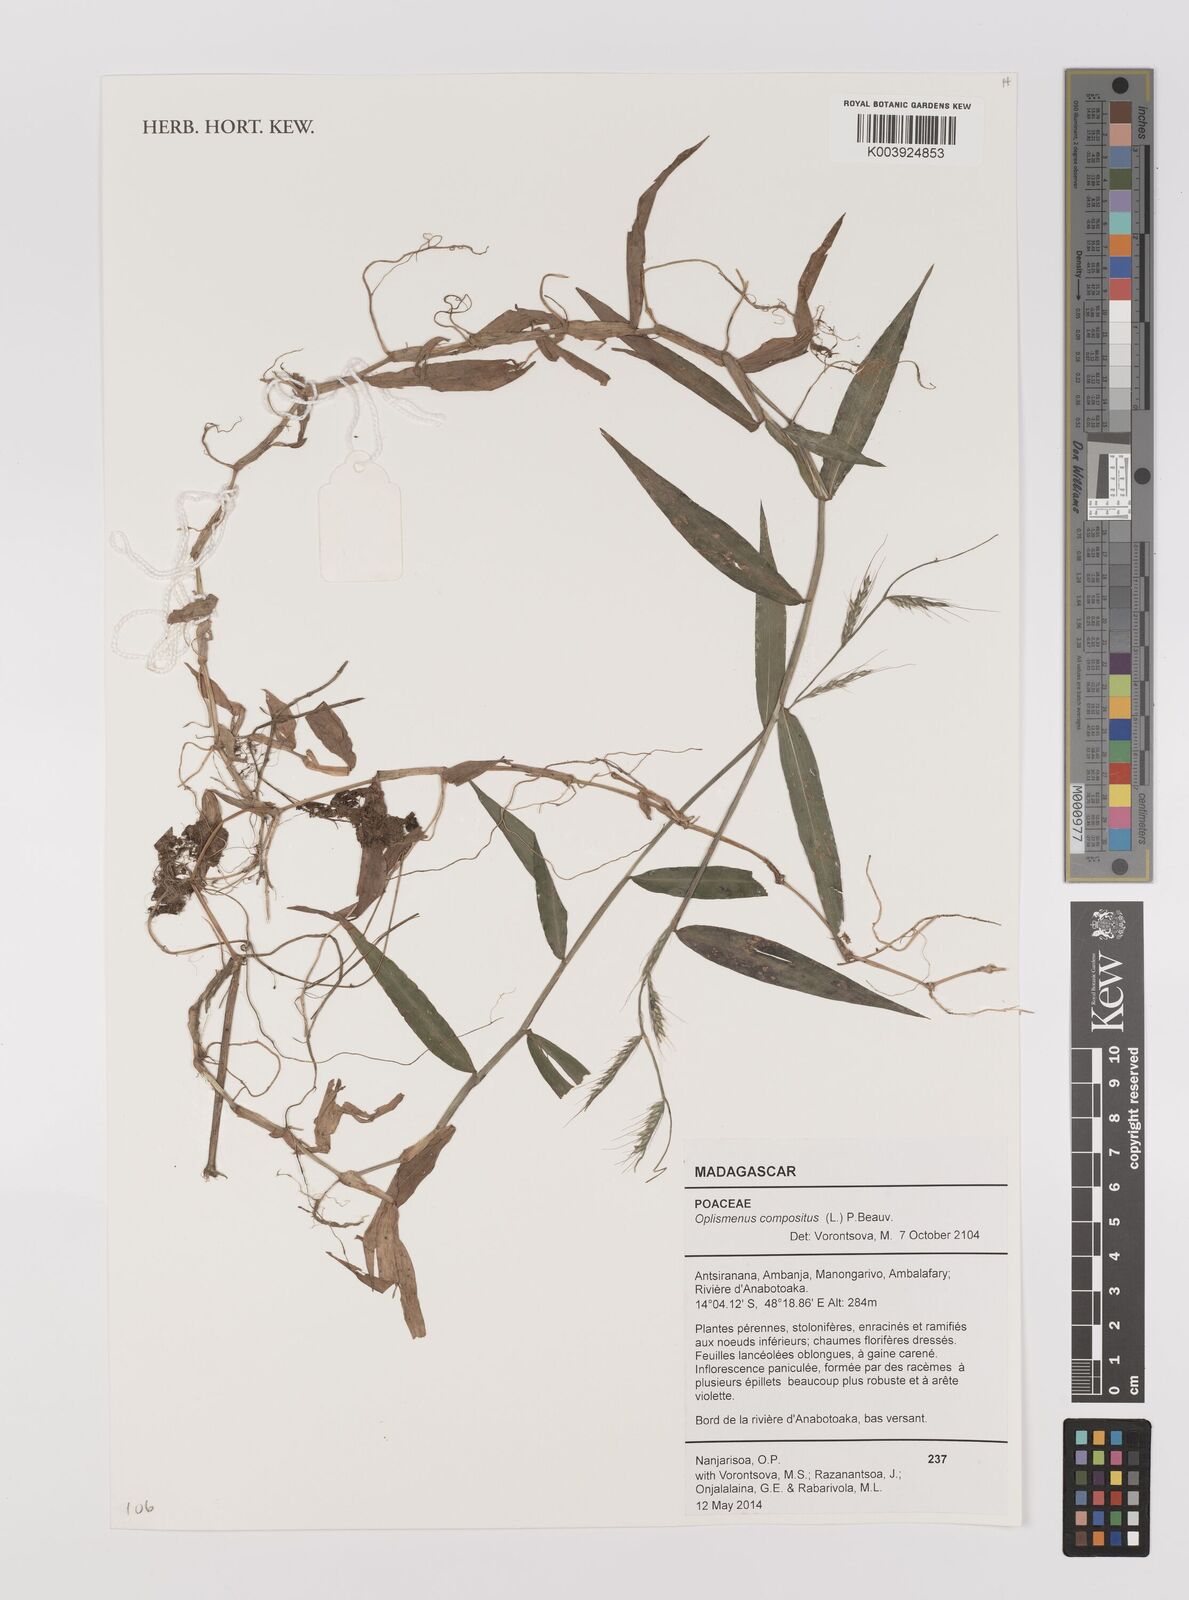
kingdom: Plantae
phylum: Tracheophyta
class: Liliopsida
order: Poales
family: Poaceae
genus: Oplismenus
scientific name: Oplismenus compositus
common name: Running mountain grass
